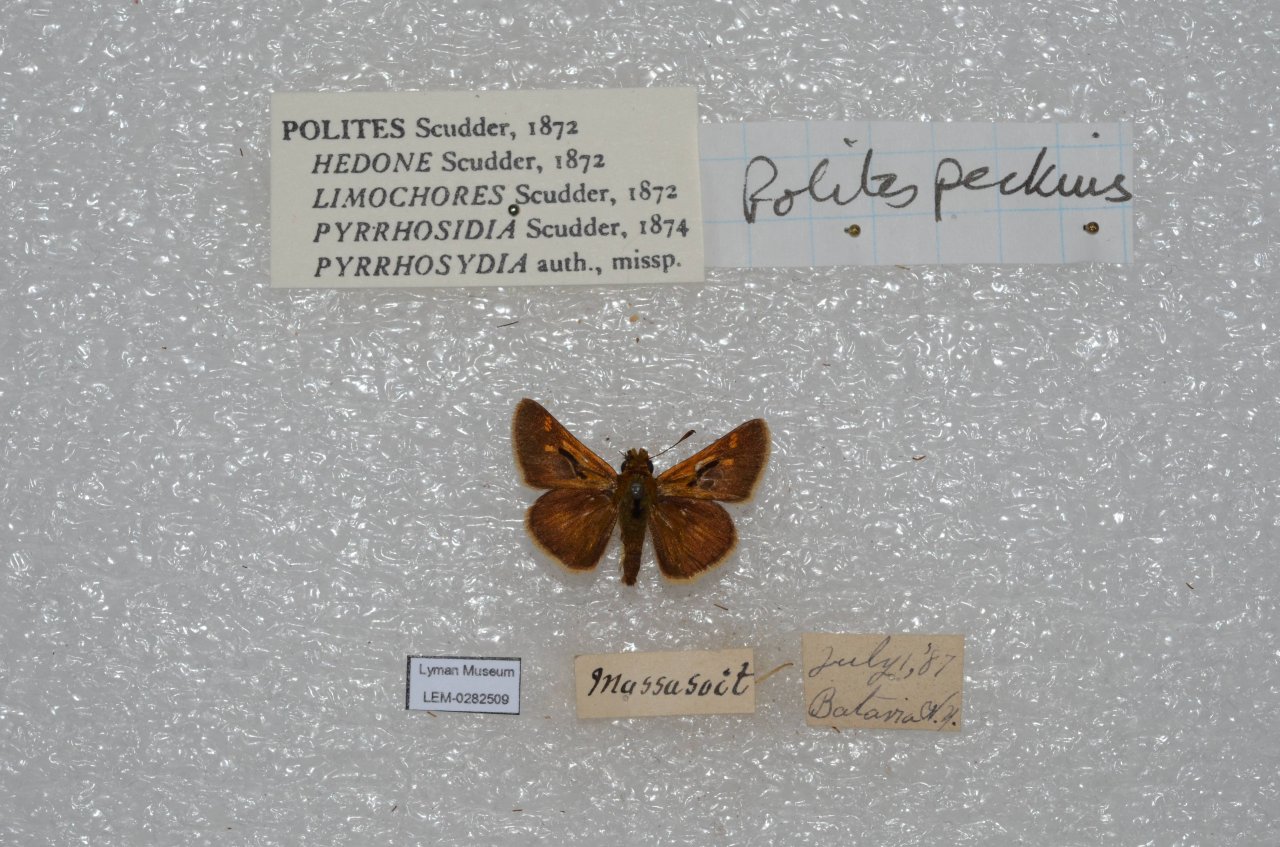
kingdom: Animalia
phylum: Arthropoda
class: Insecta
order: Lepidoptera
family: Hesperiidae
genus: Polites
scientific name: Polites coras
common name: Peck's Skipper
